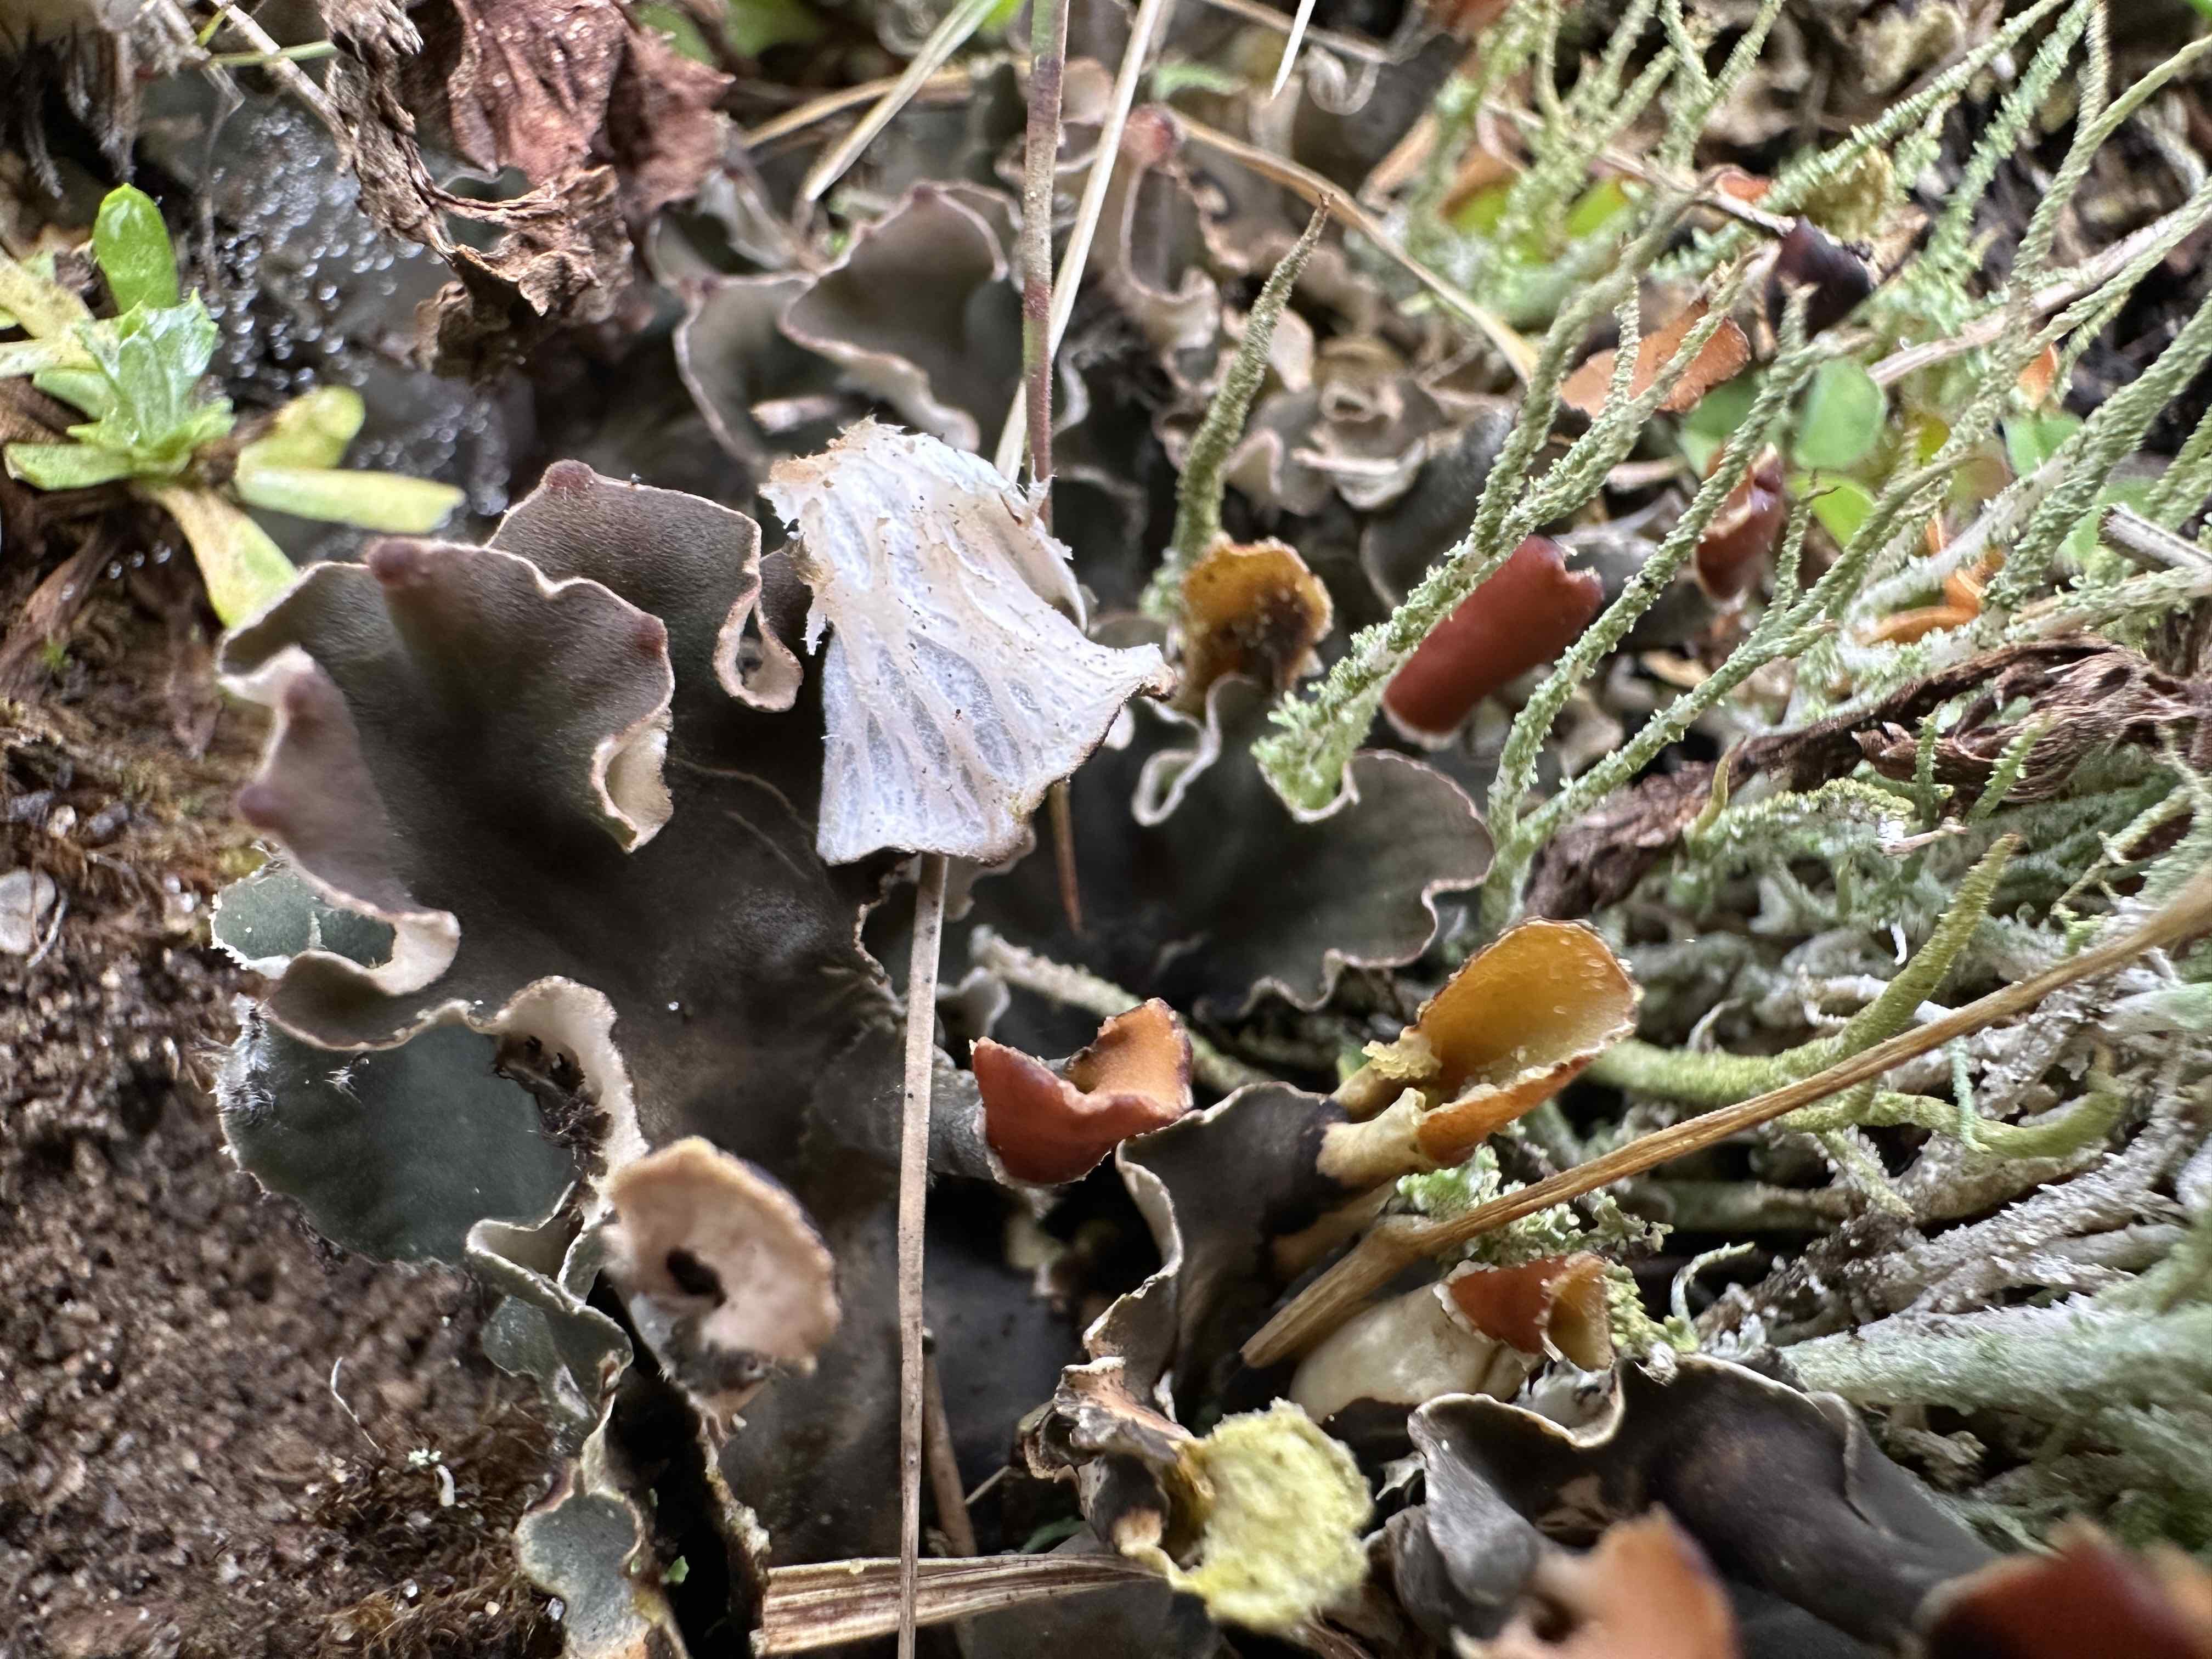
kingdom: Fungi
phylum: Ascomycota
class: Lecanoromycetes
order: Peltigerales
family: Peltigeraceae
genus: Peltigera
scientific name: Peltigera didactyla
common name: liden skjoldlav
